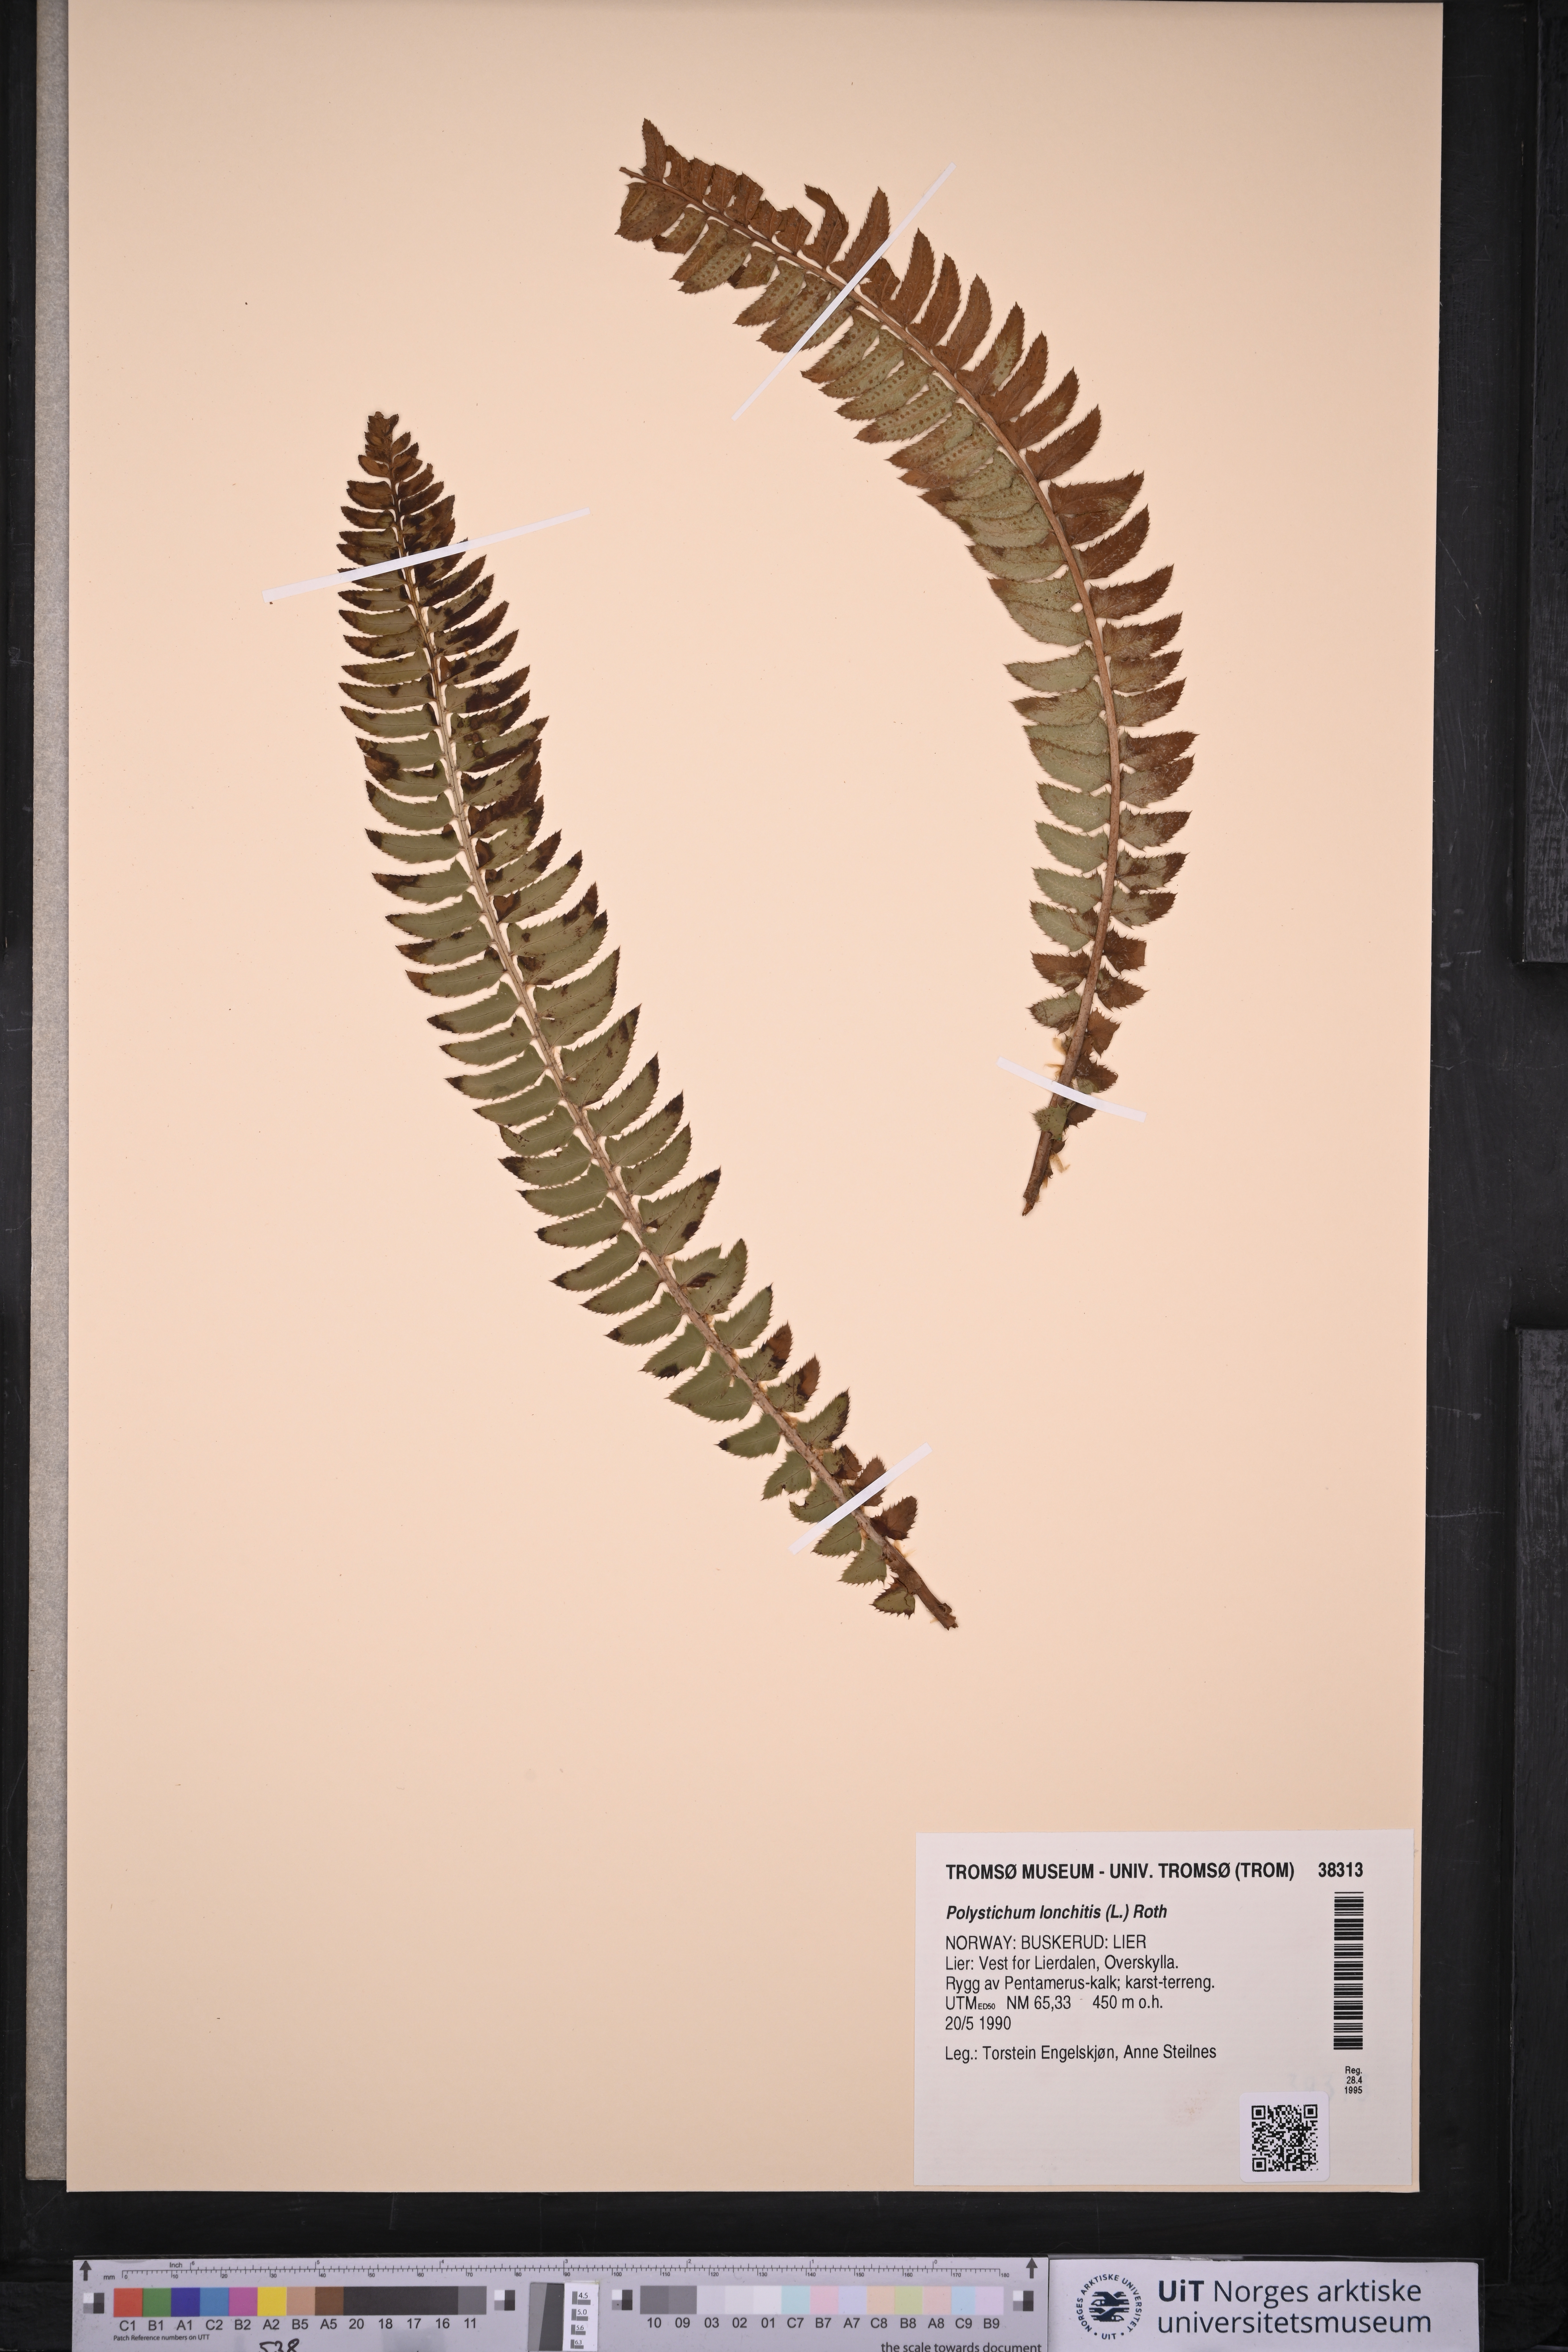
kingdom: Plantae
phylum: Tracheophyta
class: Polypodiopsida
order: Polypodiales
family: Dryopteridaceae
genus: Polystichum
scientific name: Polystichum lonchitis
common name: Holly fern
